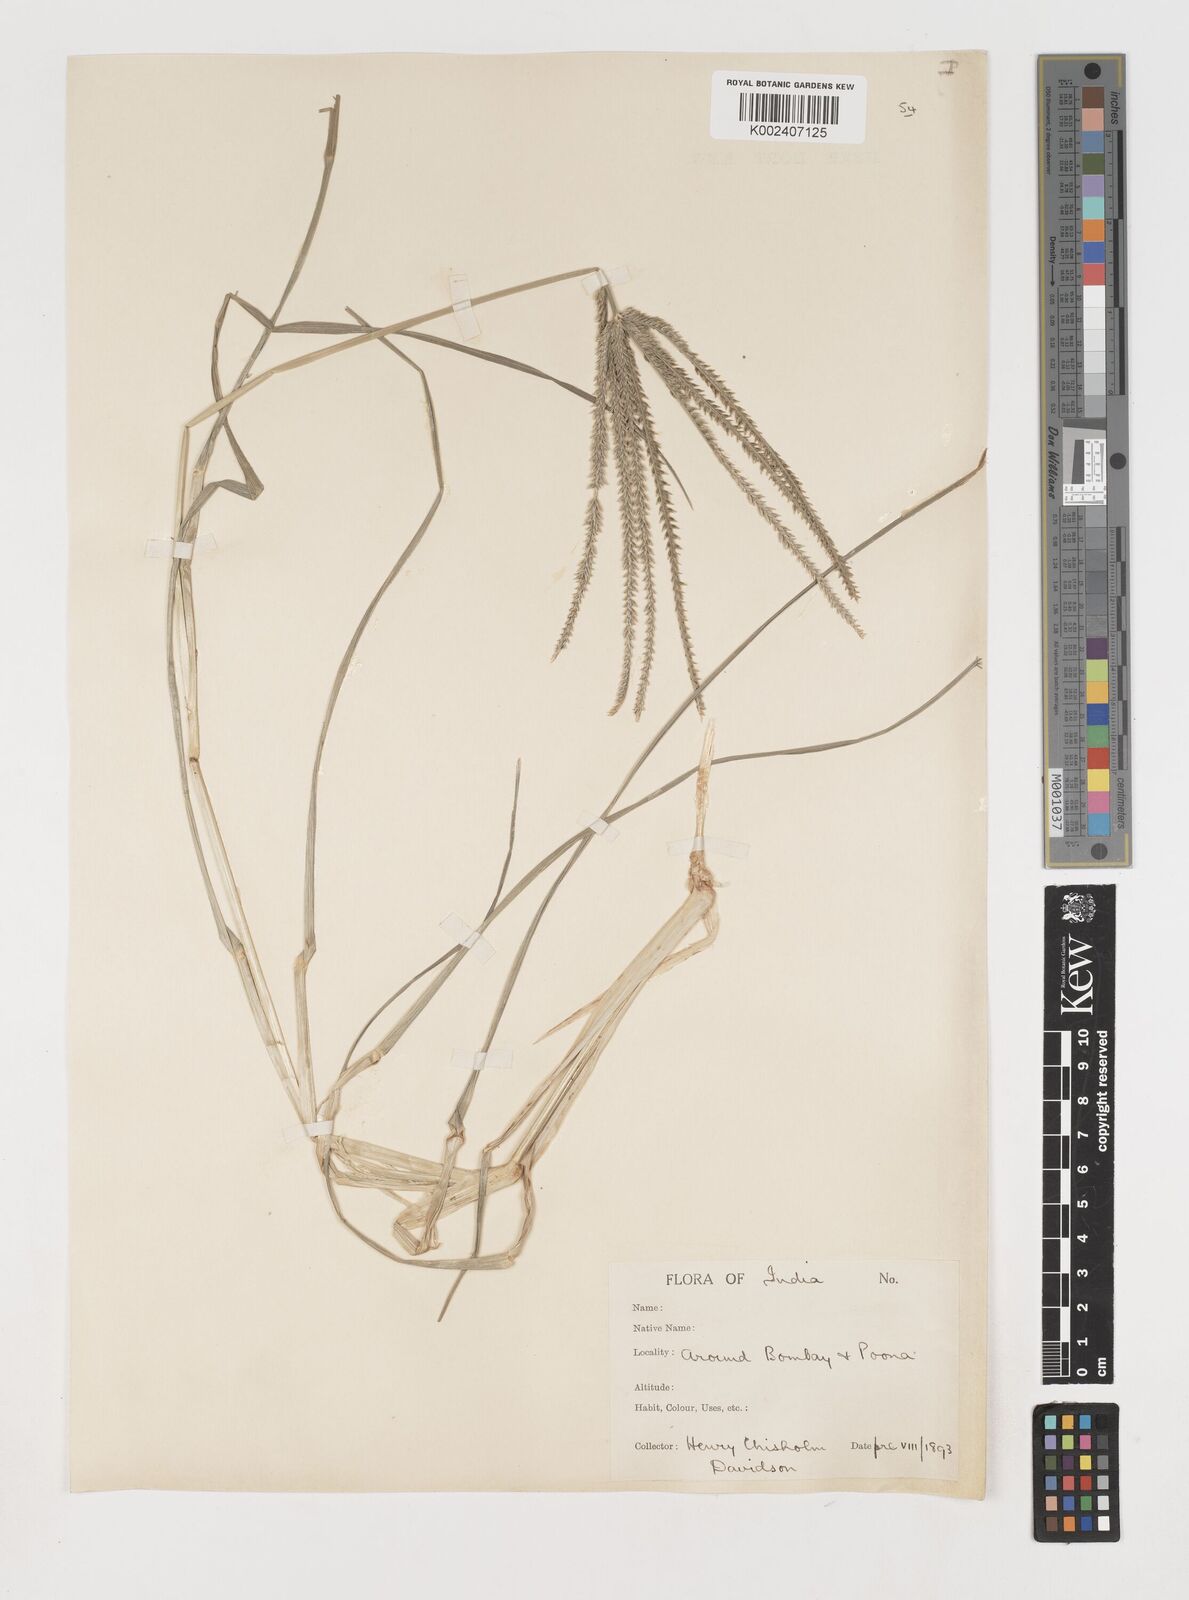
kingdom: Plantae
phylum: Tracheophyta
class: Liliopsida
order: Poales
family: Poaceae
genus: Eleusine
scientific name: Eleusine indica
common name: Yard-grass
